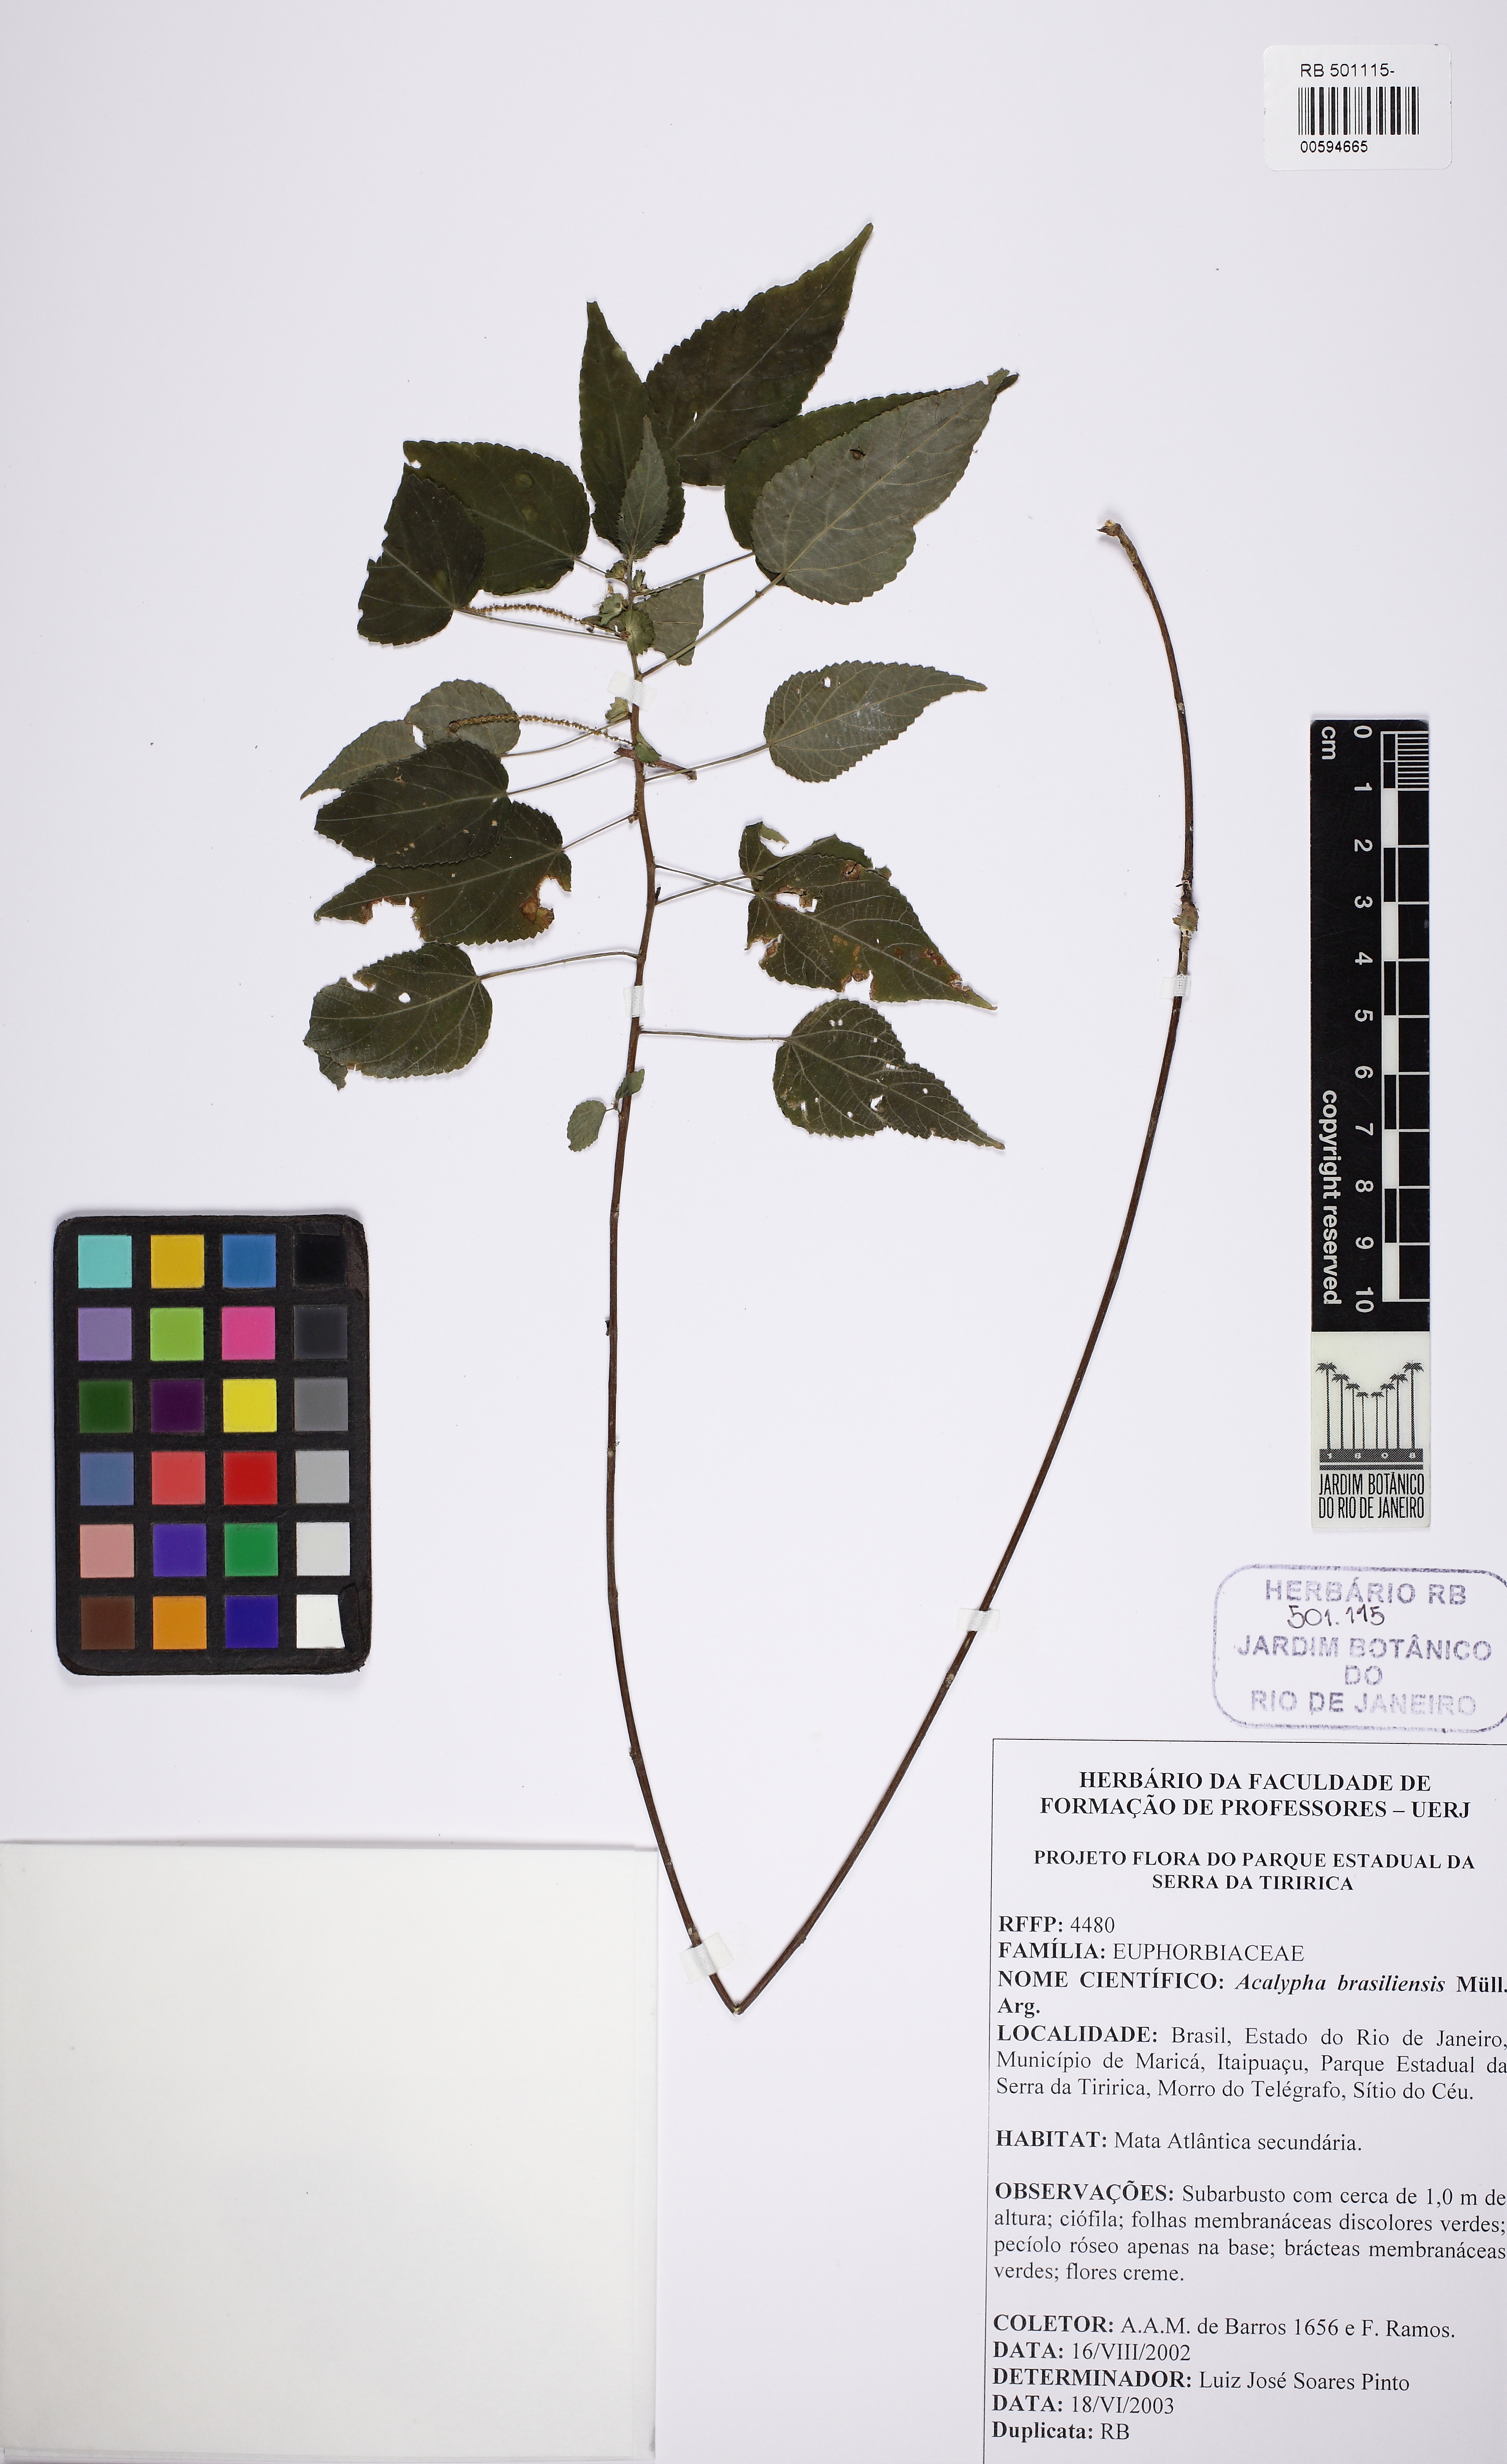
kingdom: Plantae
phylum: Tracheophyta
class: Magnoliopsida
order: Malpighiales
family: Euphorbiaceae
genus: Acalypha
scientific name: Acalypha amblyodonta
